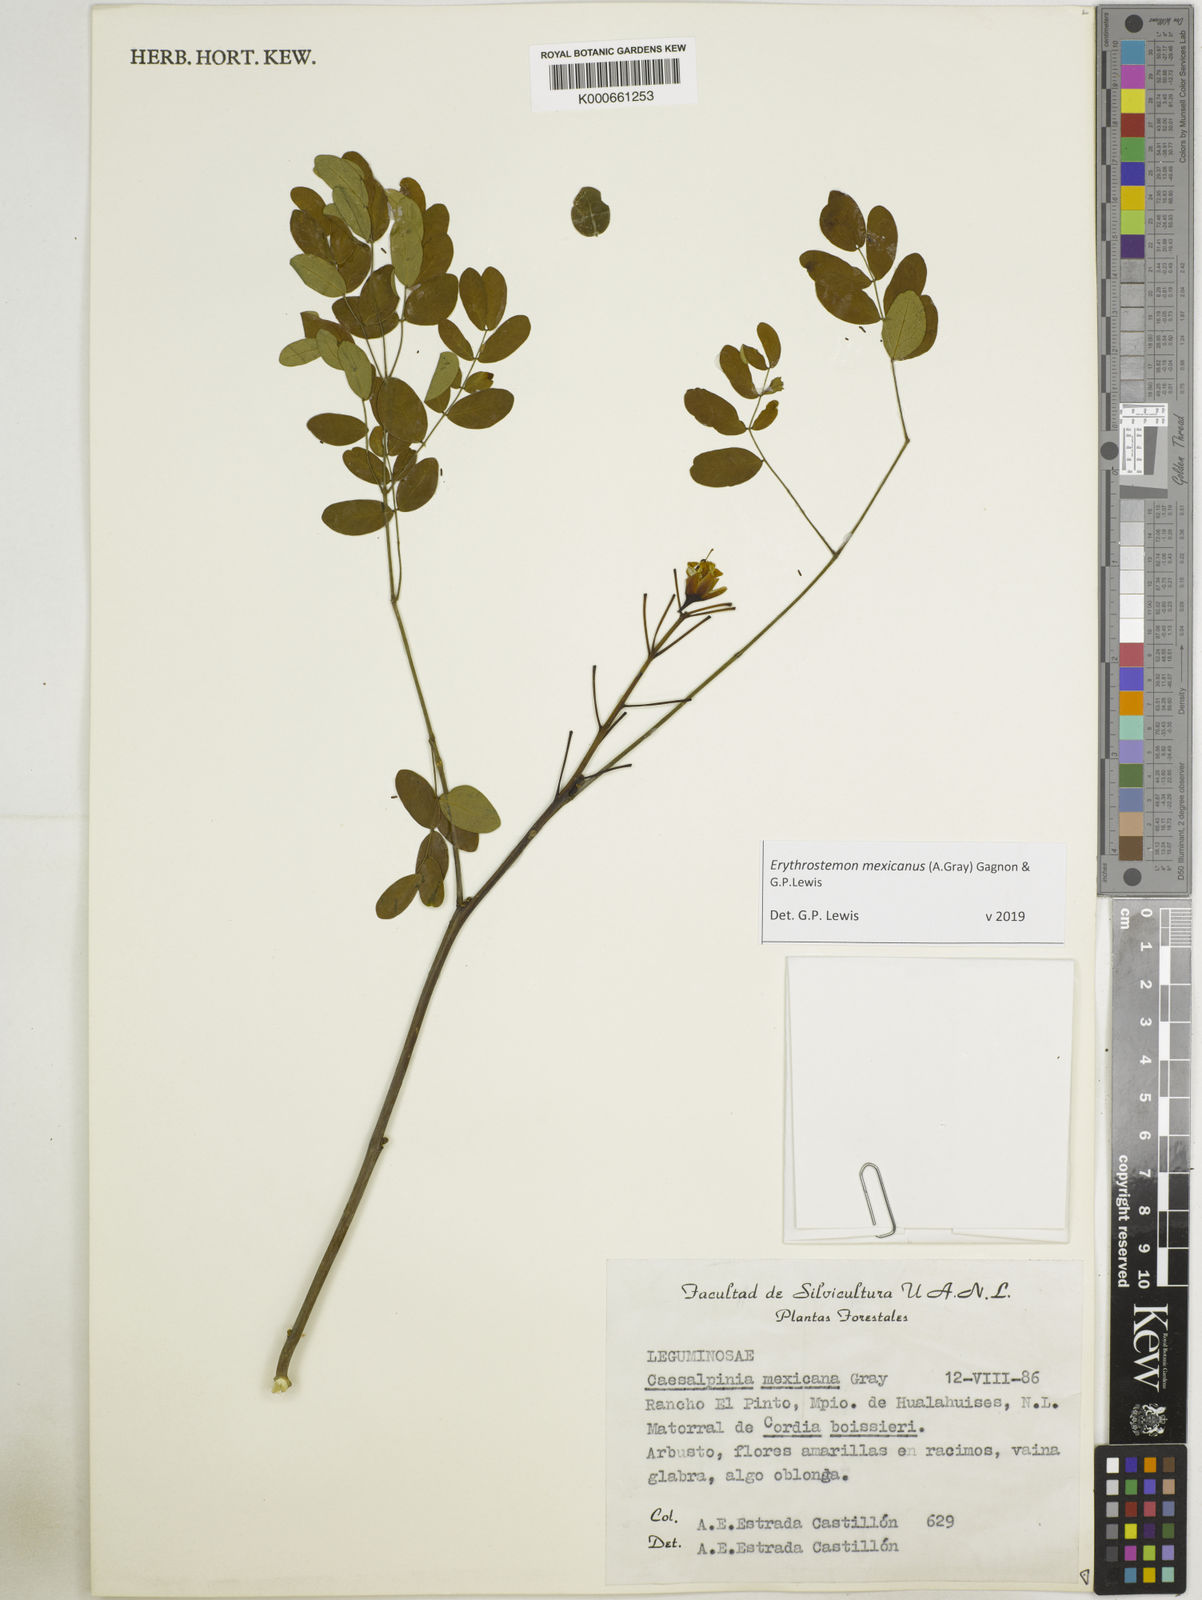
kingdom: Plantae
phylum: Tracheophyta
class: Magnoliopsida
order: Fabales
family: Fabaceae
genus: Erythrostemon
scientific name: Erythrostemon mexicanus
